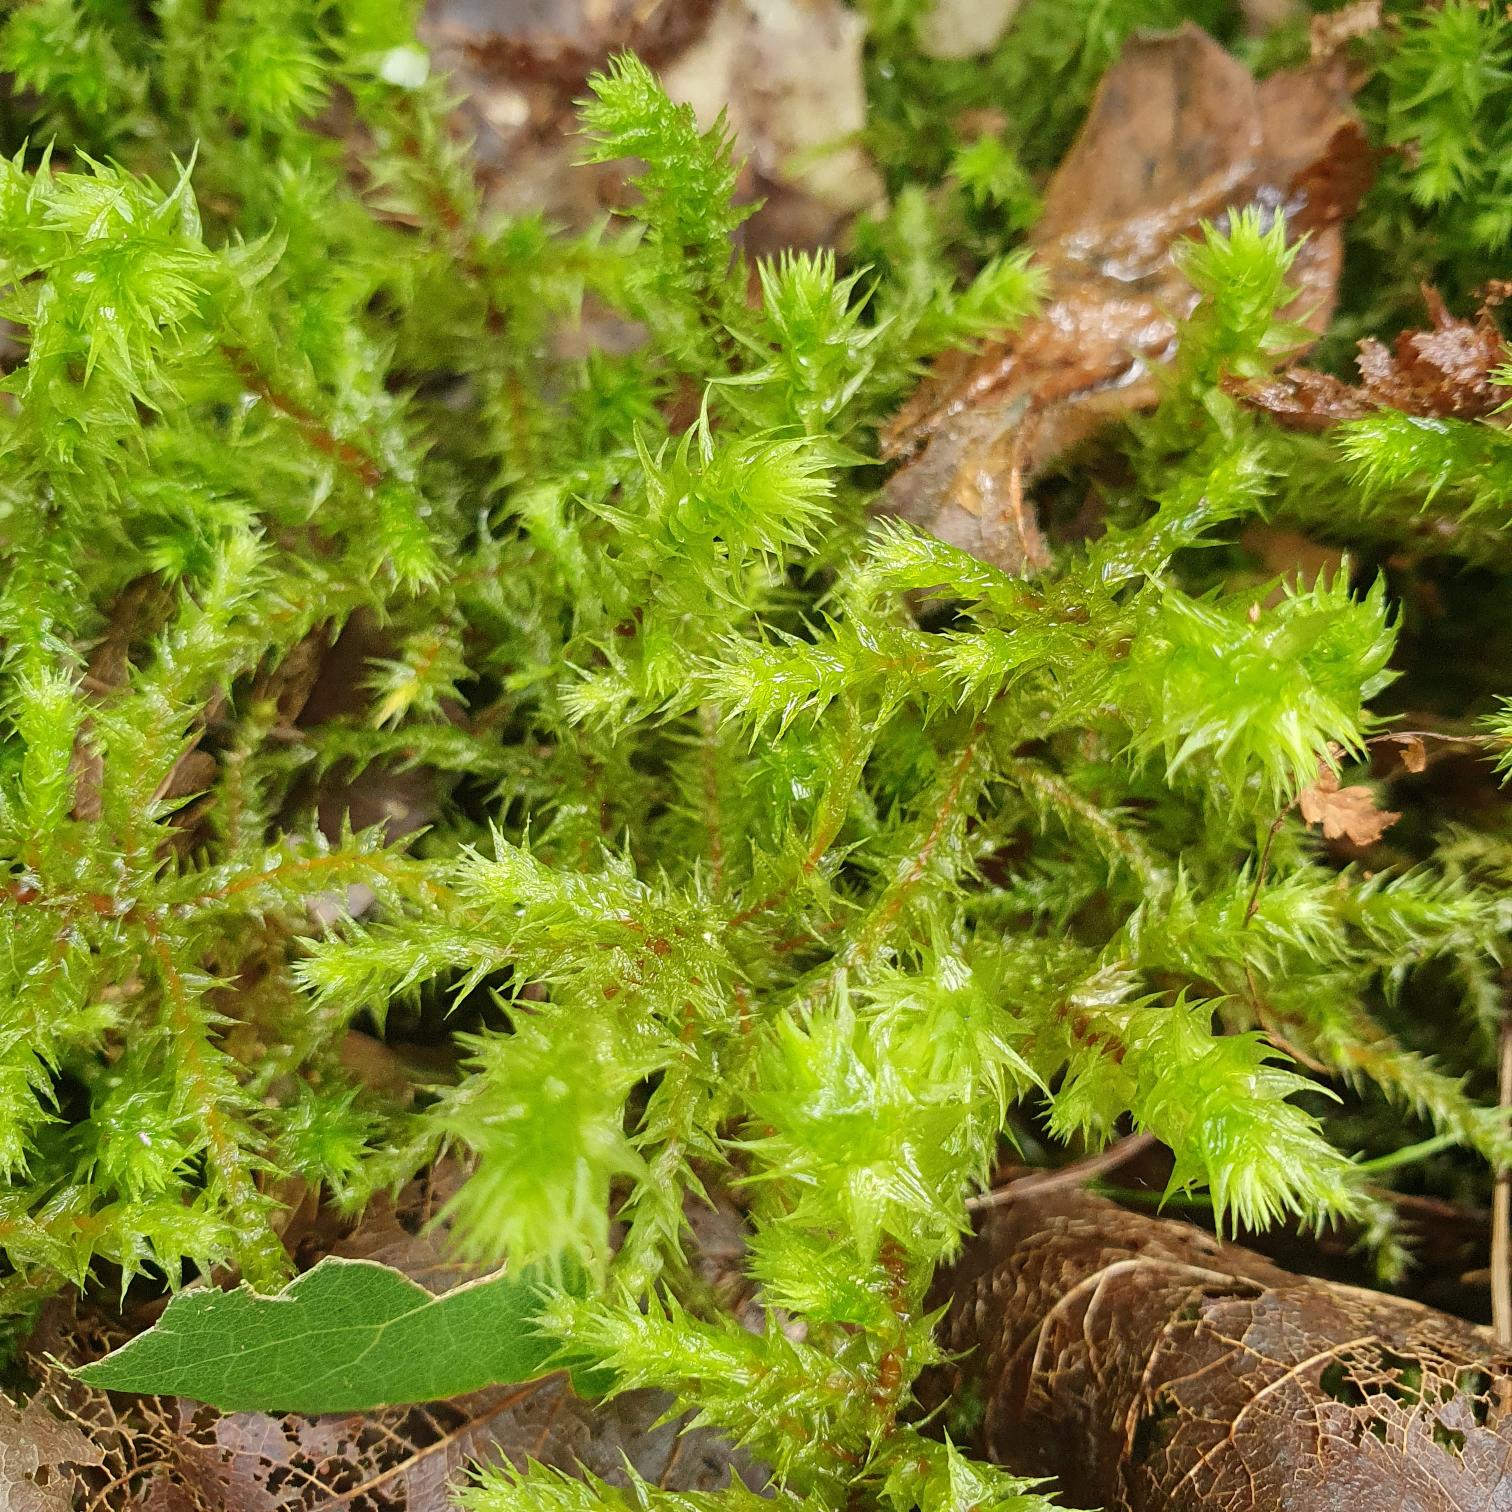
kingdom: Plantae
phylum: Bryophyta
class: Bryopsida
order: Hypnales
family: Hylocomiaceae
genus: Hylocomiadelphus
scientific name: Hylocomiadelphus triquetrus
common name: Stor kransemos
